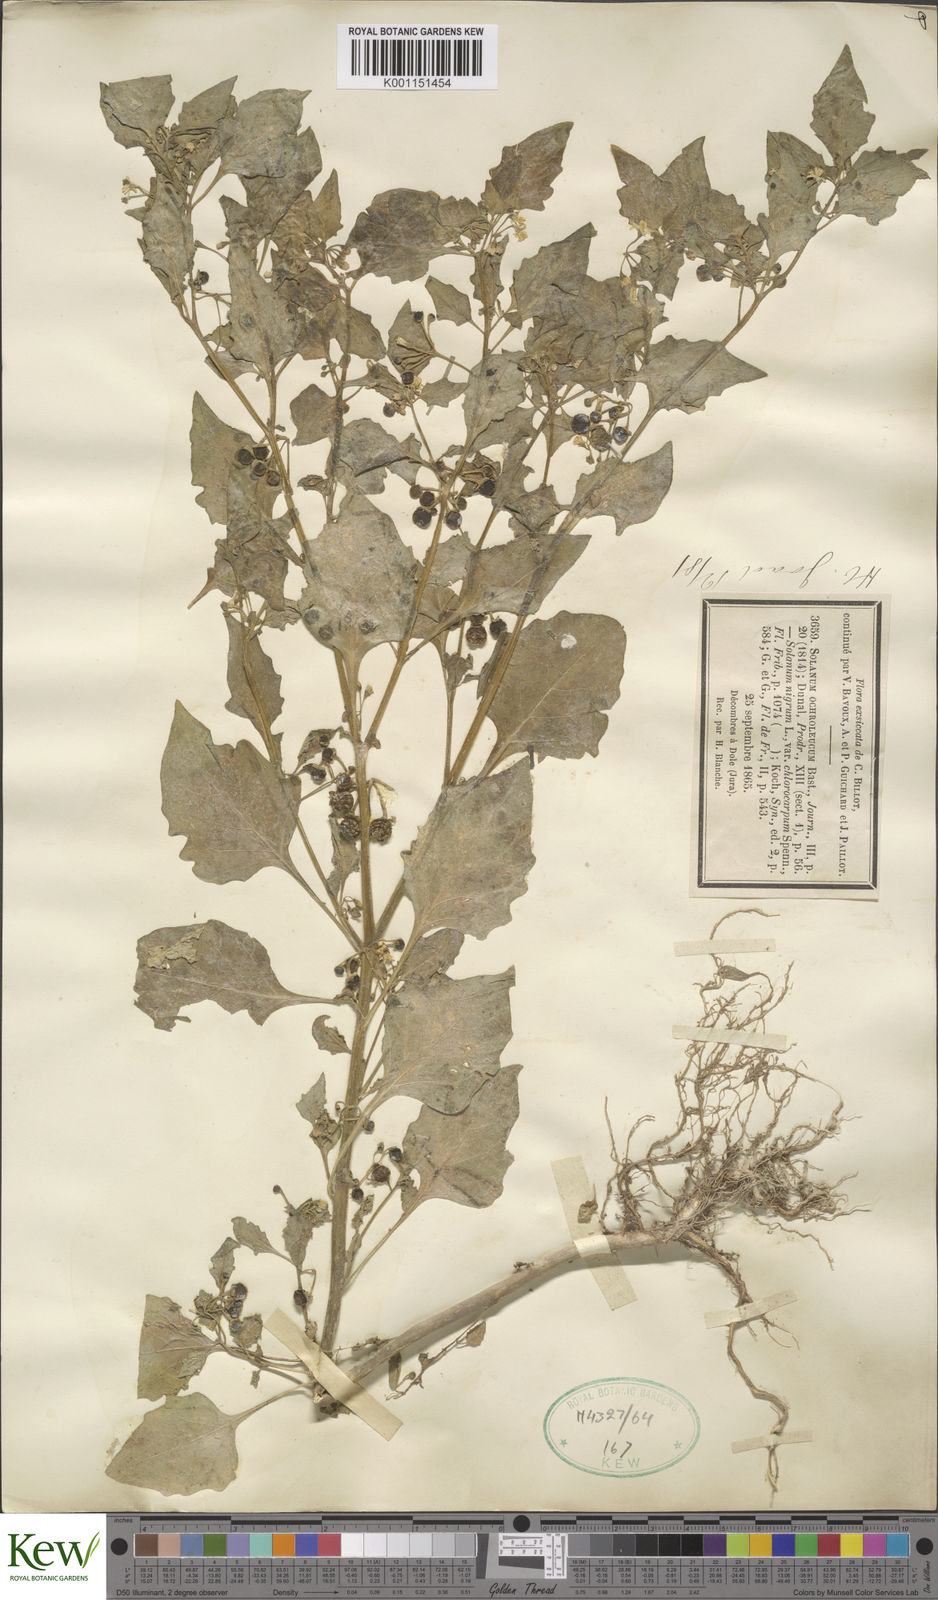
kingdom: Plantae
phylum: Tracheophyta
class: Magnoliopsida
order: Solanales
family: Solanaceae
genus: Solanum
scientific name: Solanum villosum
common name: Red nightshade
